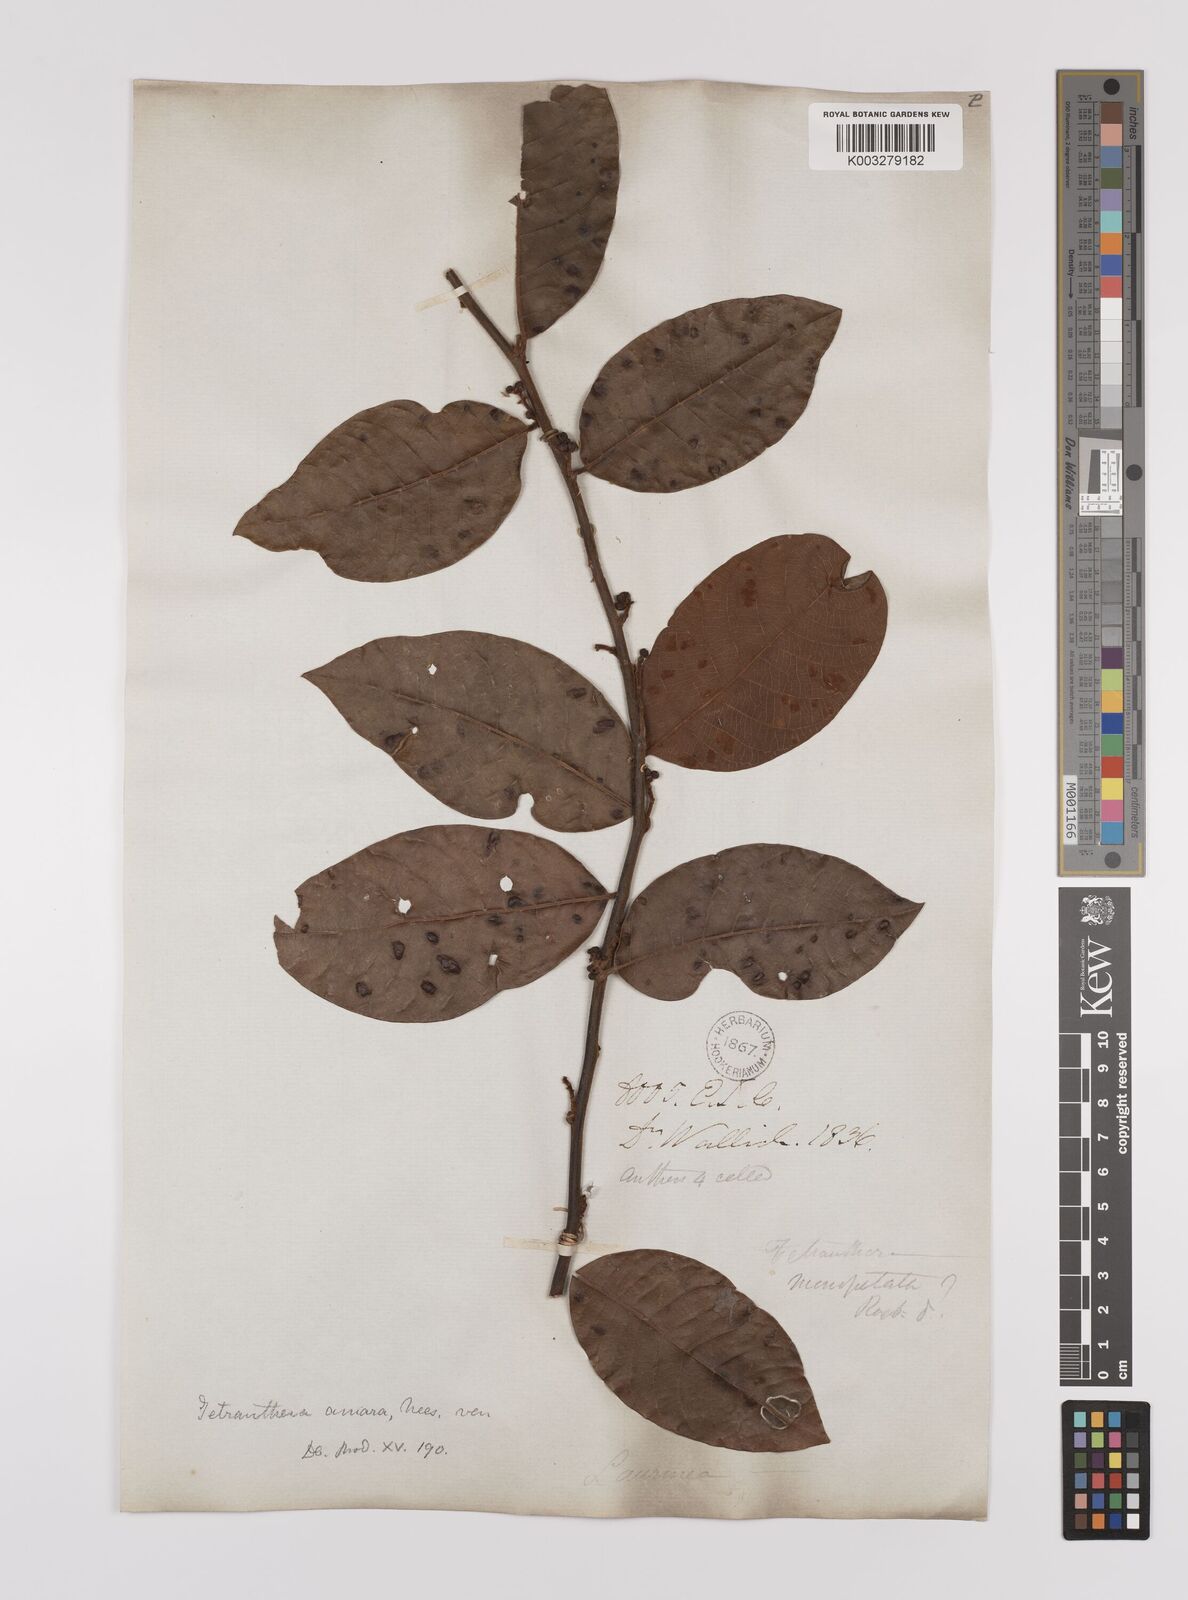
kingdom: Plantae
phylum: Tracheophyta
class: Magnoliopsida
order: Laurales
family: Lauraceae
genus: Litsea
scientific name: Litsea umbellata
